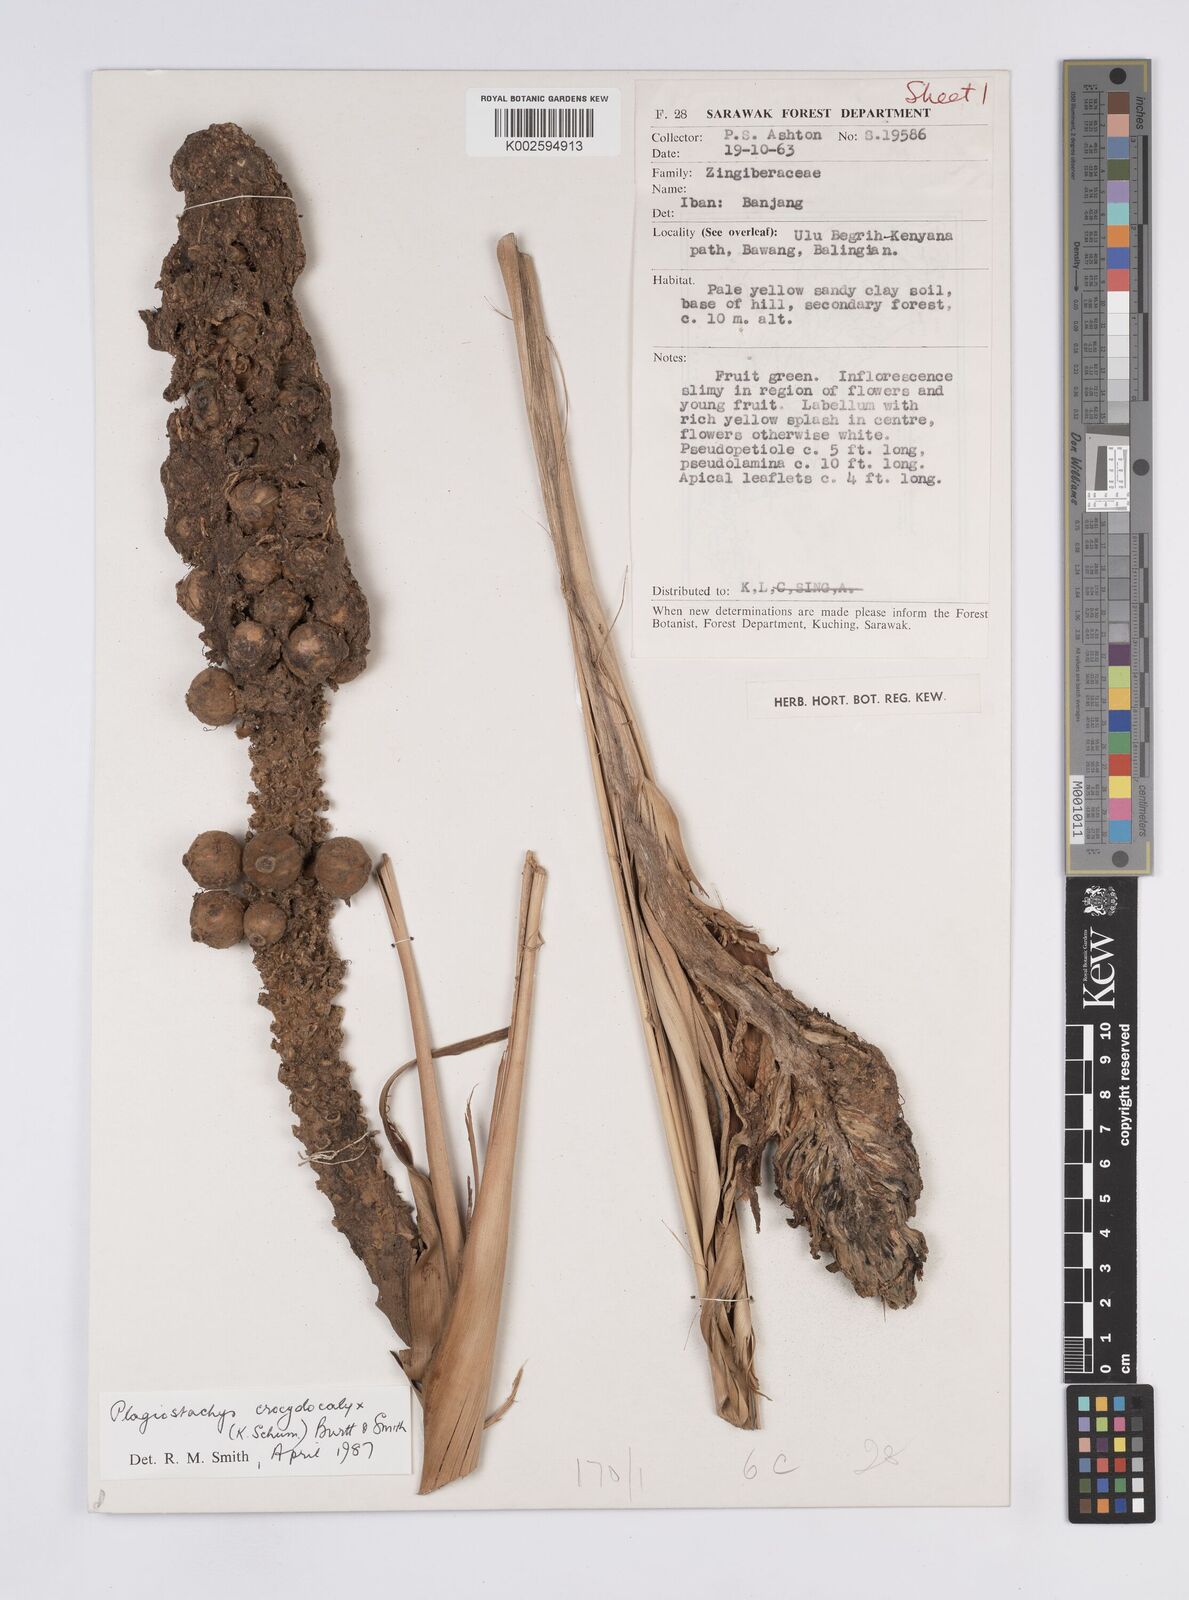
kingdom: Plantae
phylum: Tracheophyta
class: Liliopsida
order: Zingiberales
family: Zingiberaceae
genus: Plagiostachys
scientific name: Plagiostachys crocydocalyx
